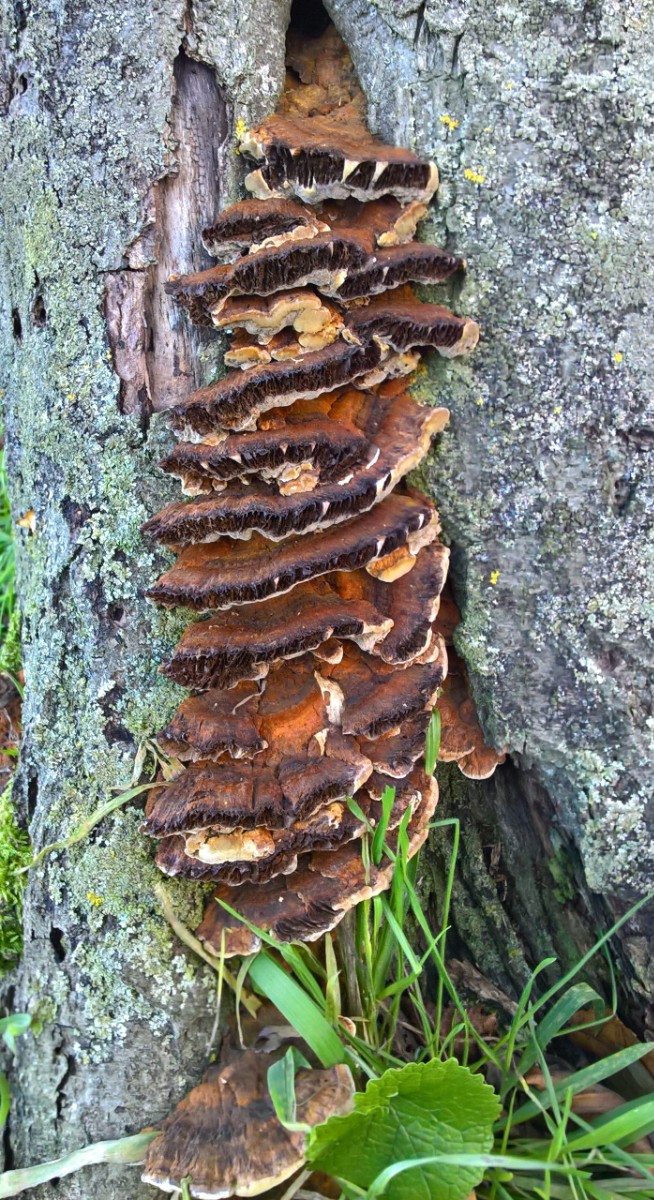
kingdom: Fungi
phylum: Basidiomycota
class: Agaricomycetes
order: Hymenochaetales
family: Hymenochaetaceae
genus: Xanthoporia
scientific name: Xanthoporia radiata
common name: elle-spejlporesvamp
